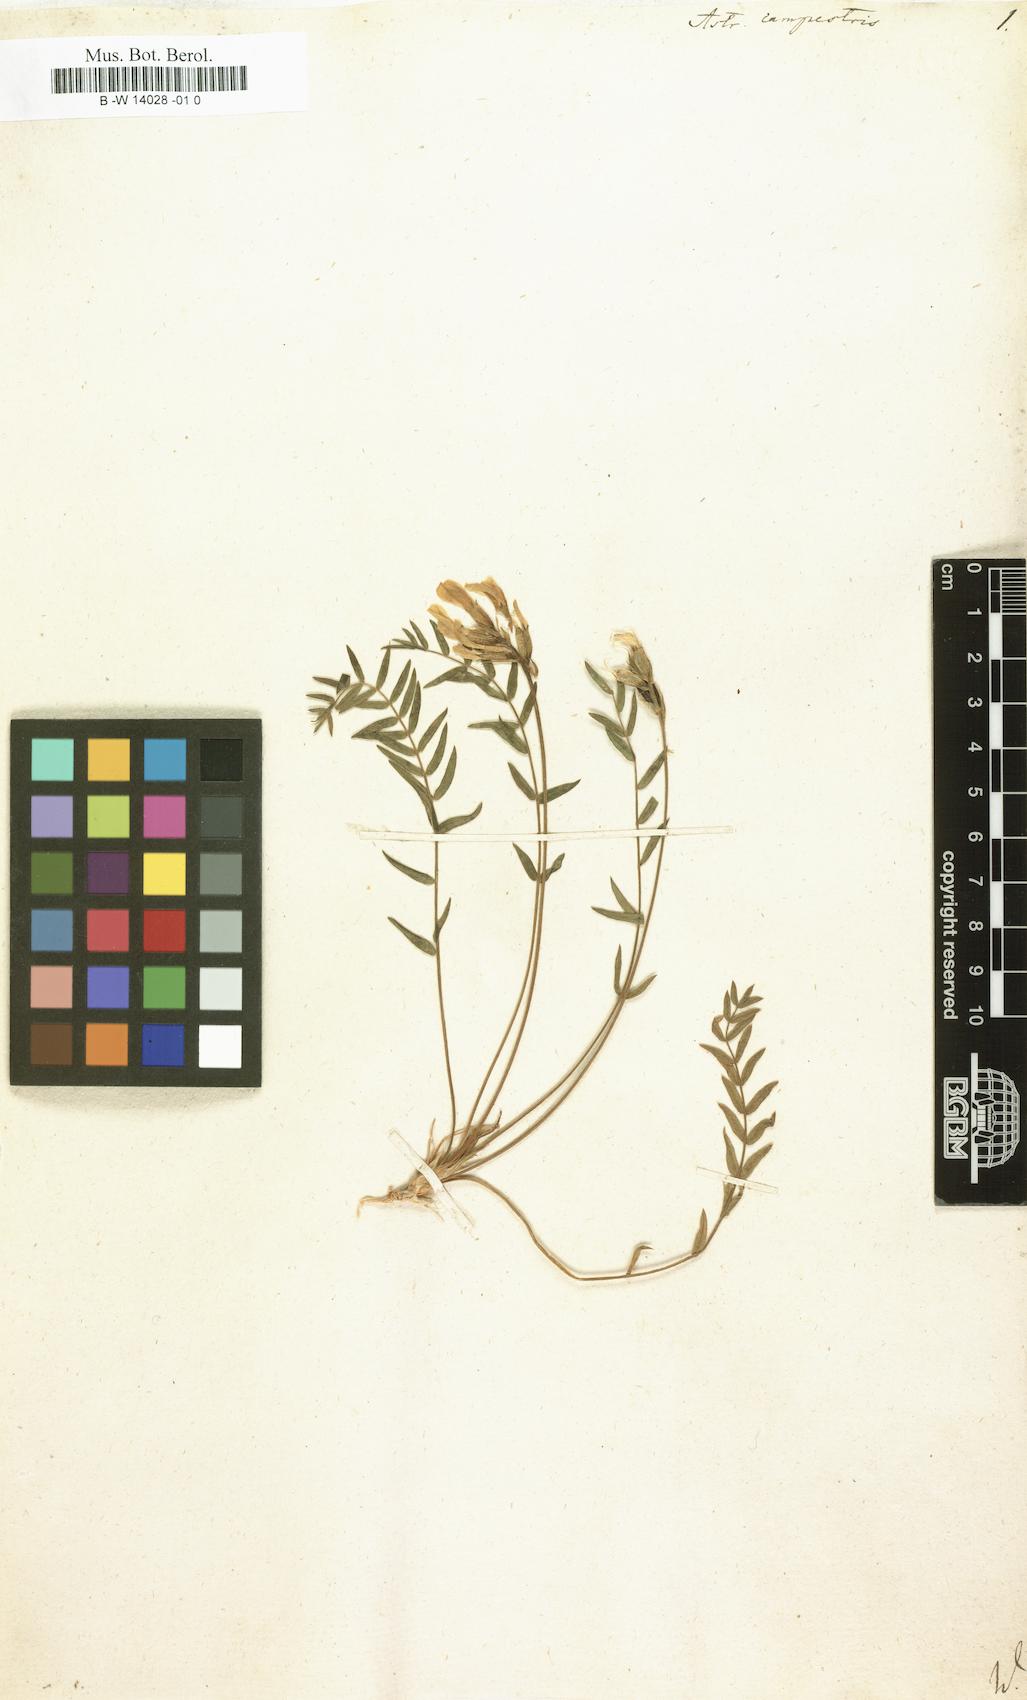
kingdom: Plantae
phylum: Tracheophyta
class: Magnoliopsida
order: Fabales
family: Fabaceae
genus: Oxytropis
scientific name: Oxytropis campestris
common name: Field locoweed
